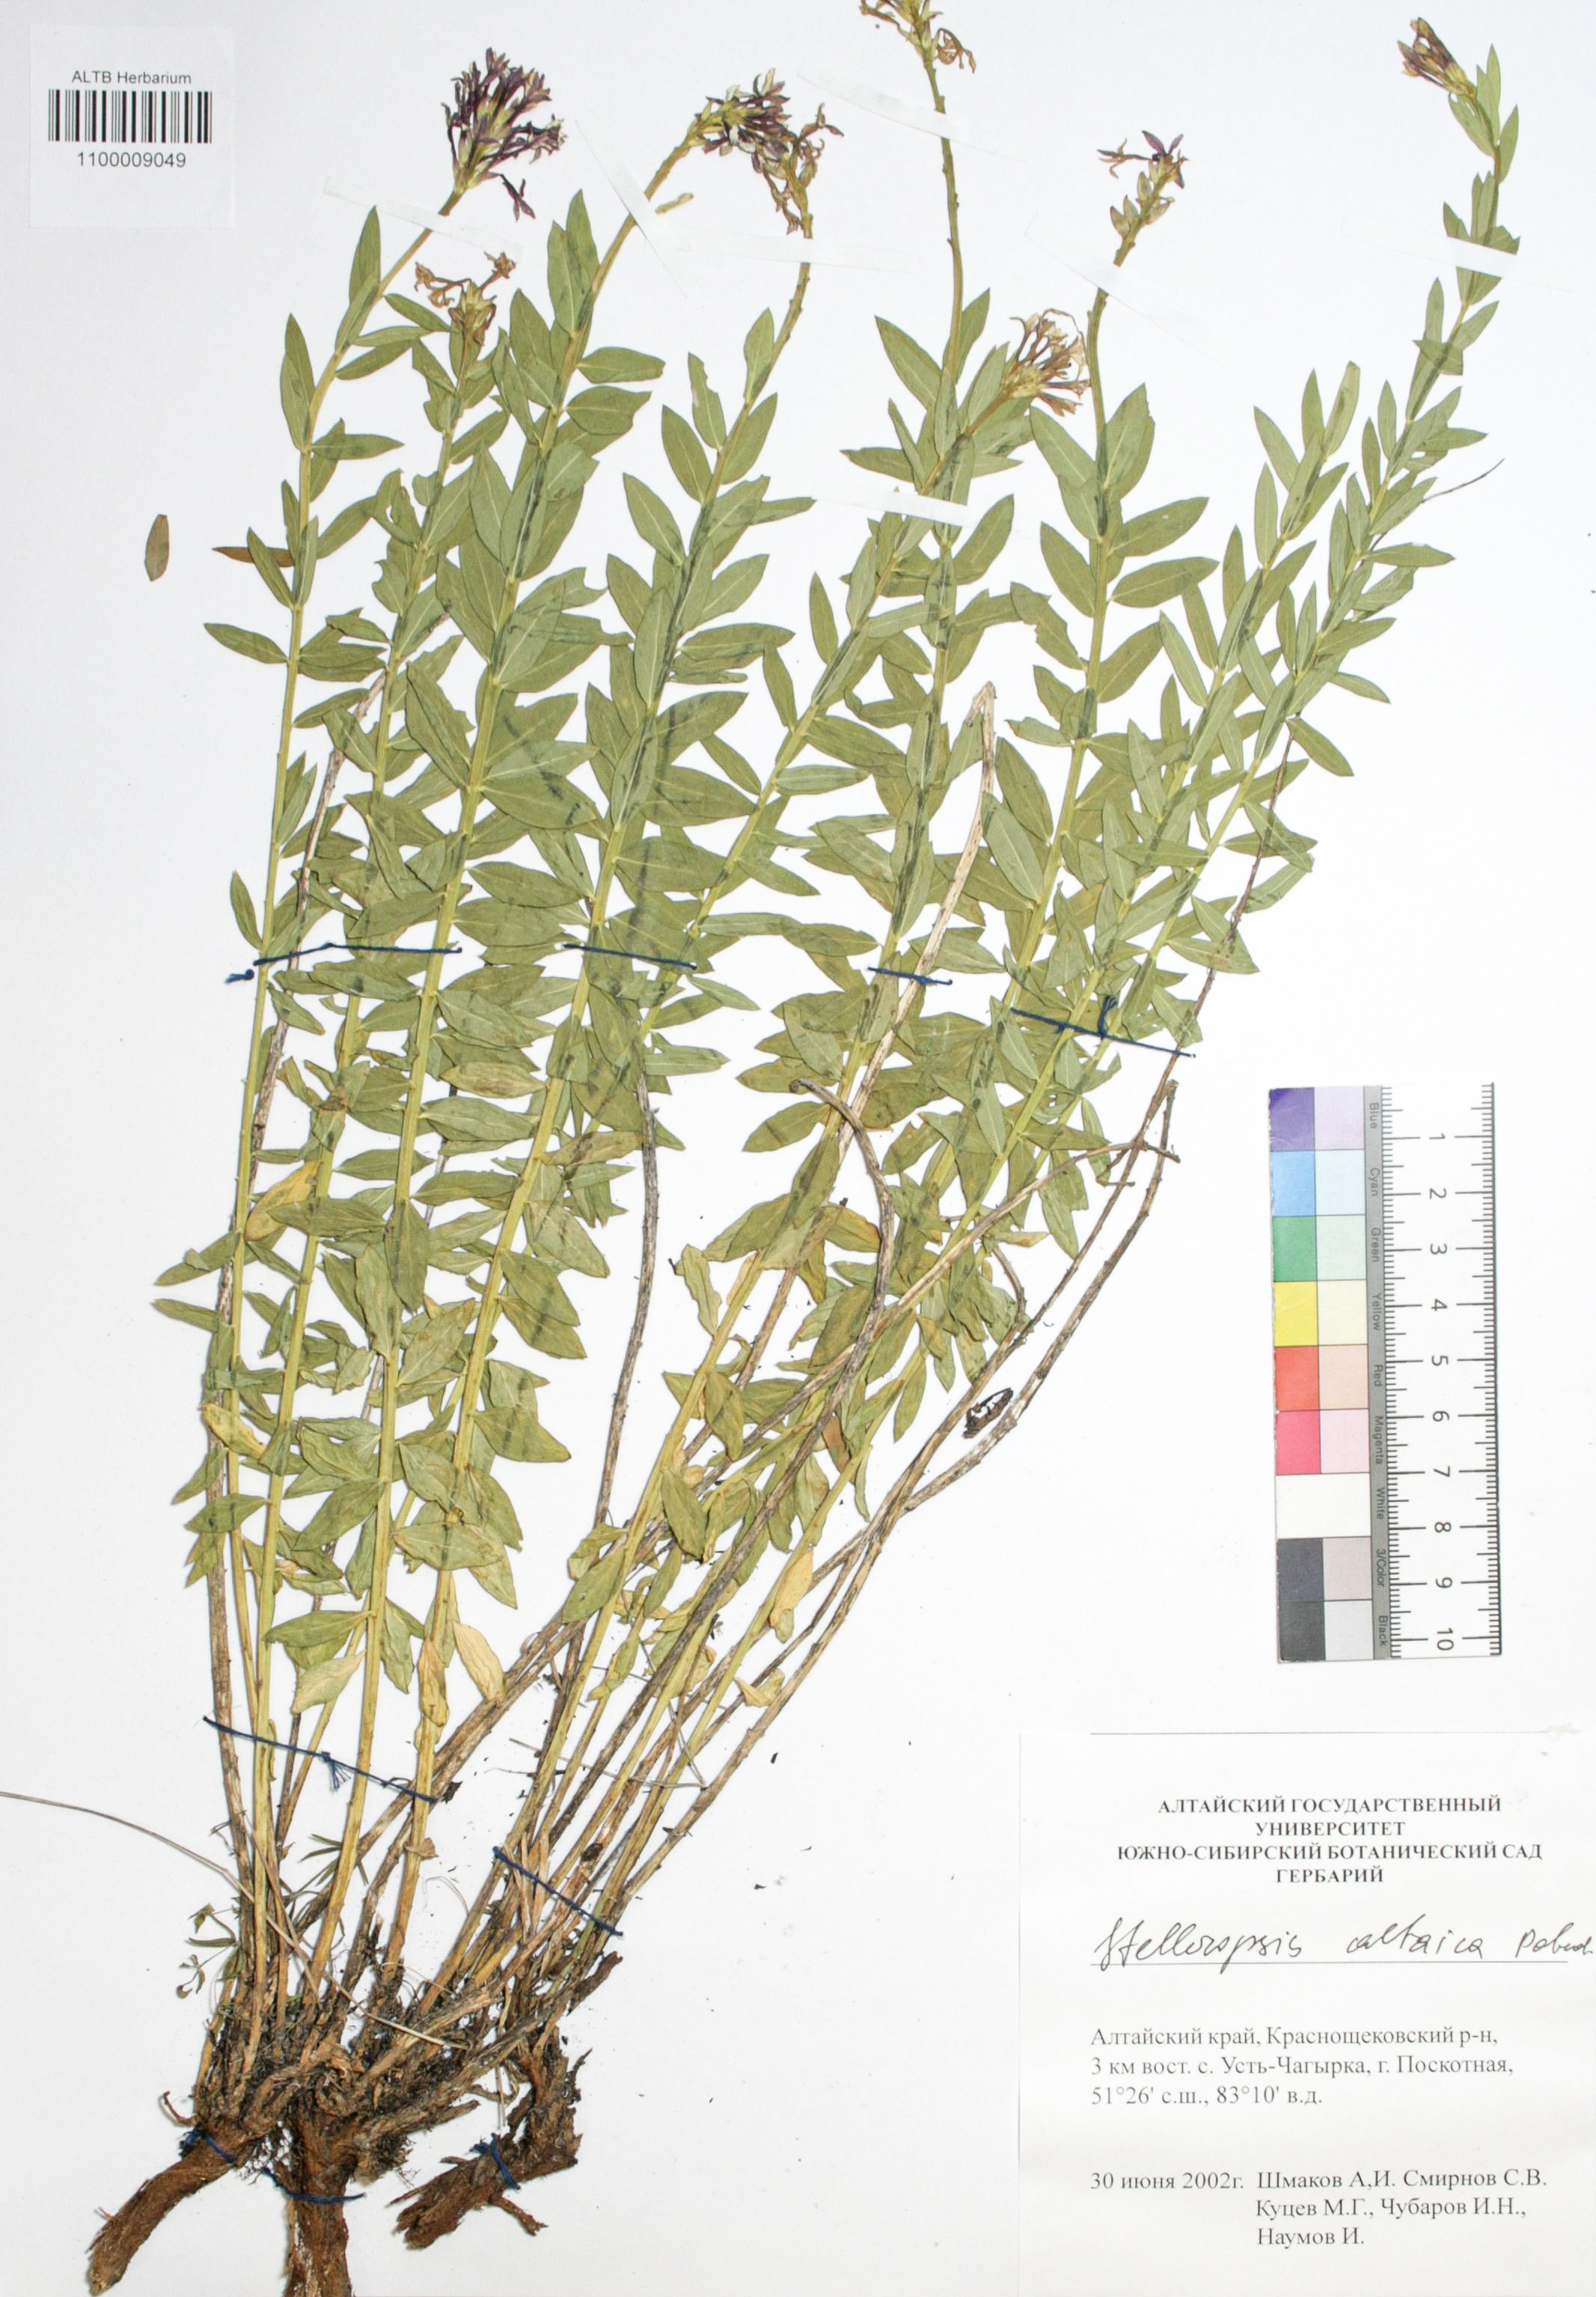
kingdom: Plantae
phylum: Tracheophyta
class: Magnoliopsida
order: Malvales
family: Thymelaeaceae
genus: Diarthron
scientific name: Diarthron altaicum
